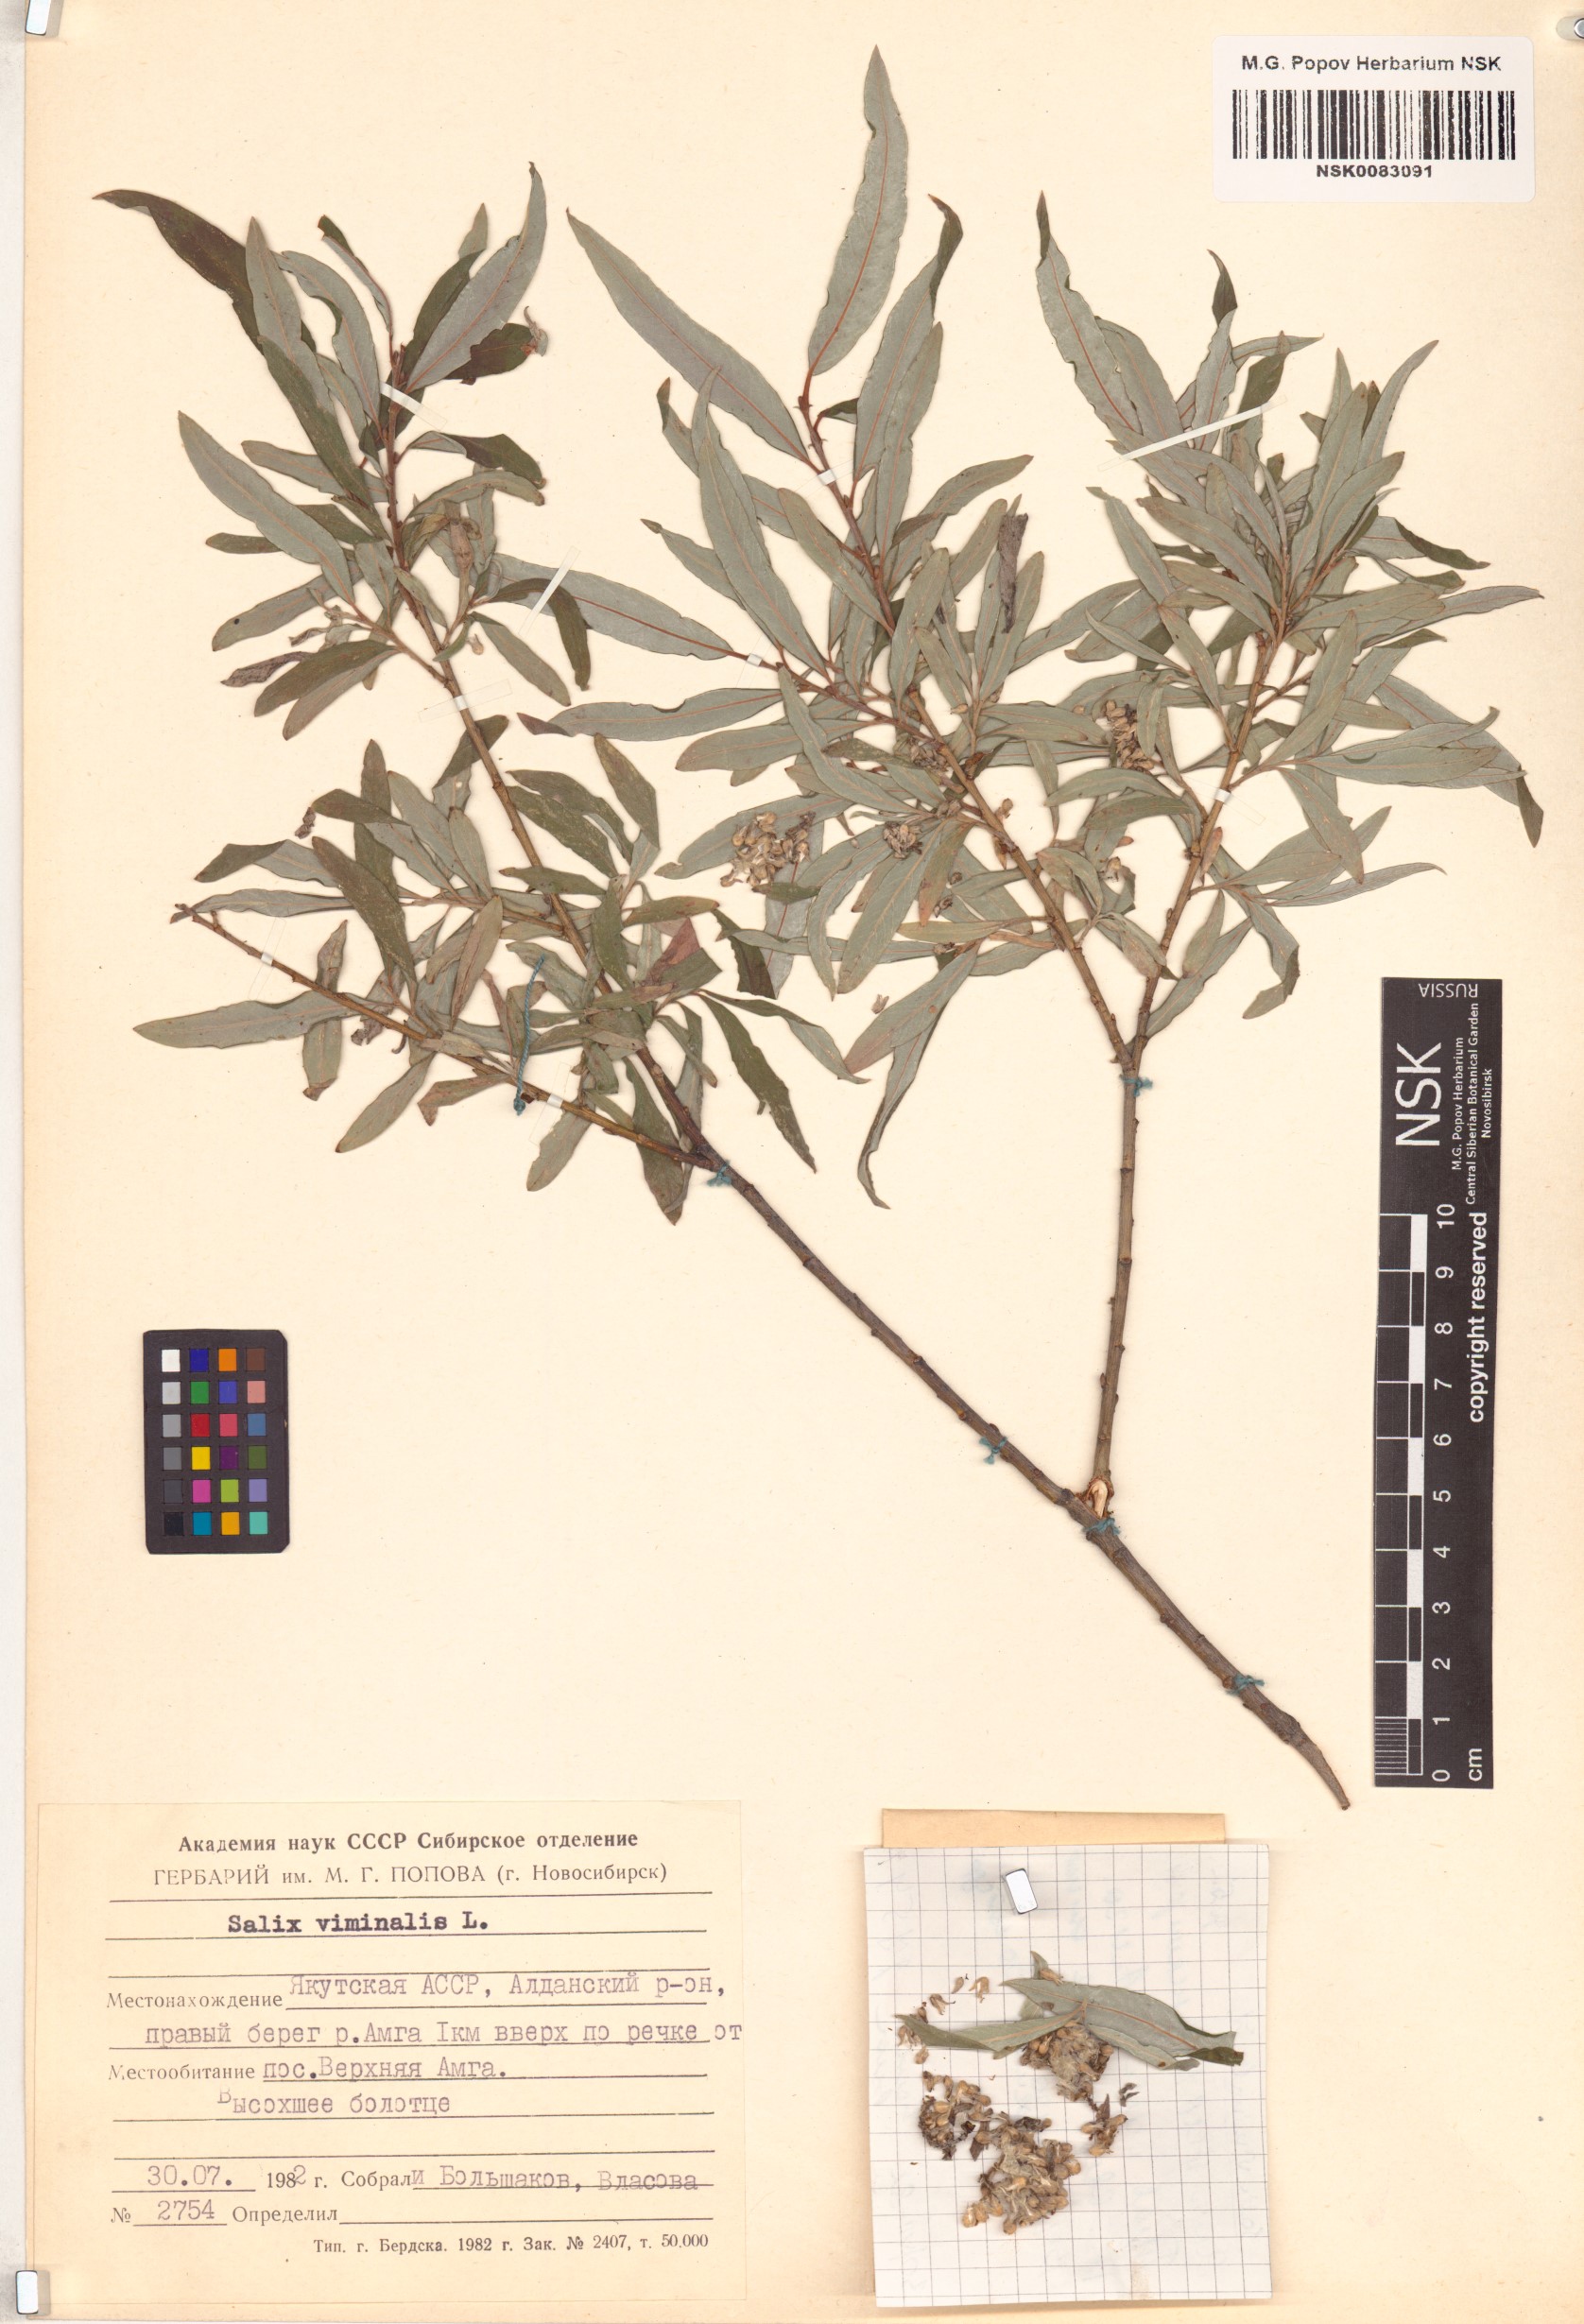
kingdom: Plantae
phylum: Tracheophyta
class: Magnoliopsida
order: Malpighiales
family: Salicaceae
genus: Salix
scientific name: Salix viminalis
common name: Osier
